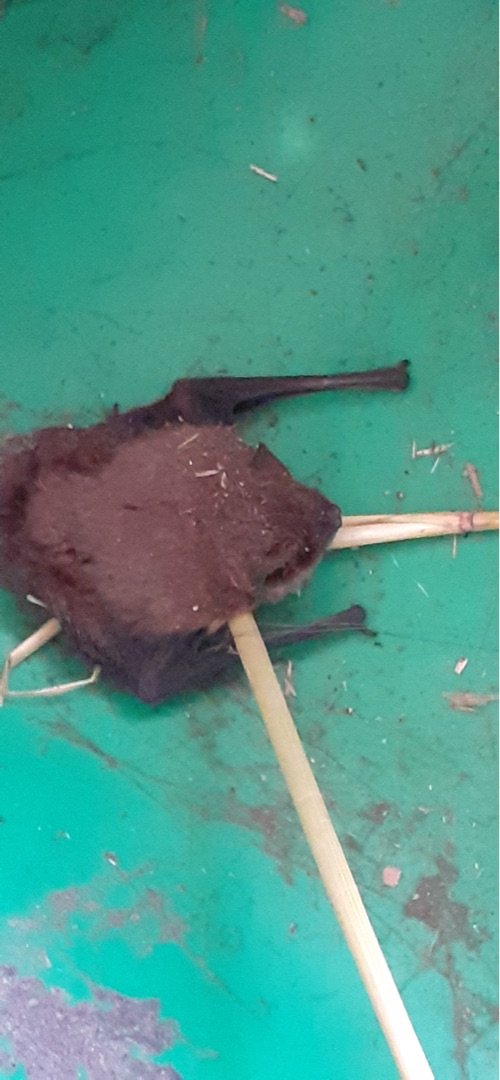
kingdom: Animalia
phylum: Chordata
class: Mammalia
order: Chiroptera
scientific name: Chiroptera
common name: Flagermus
